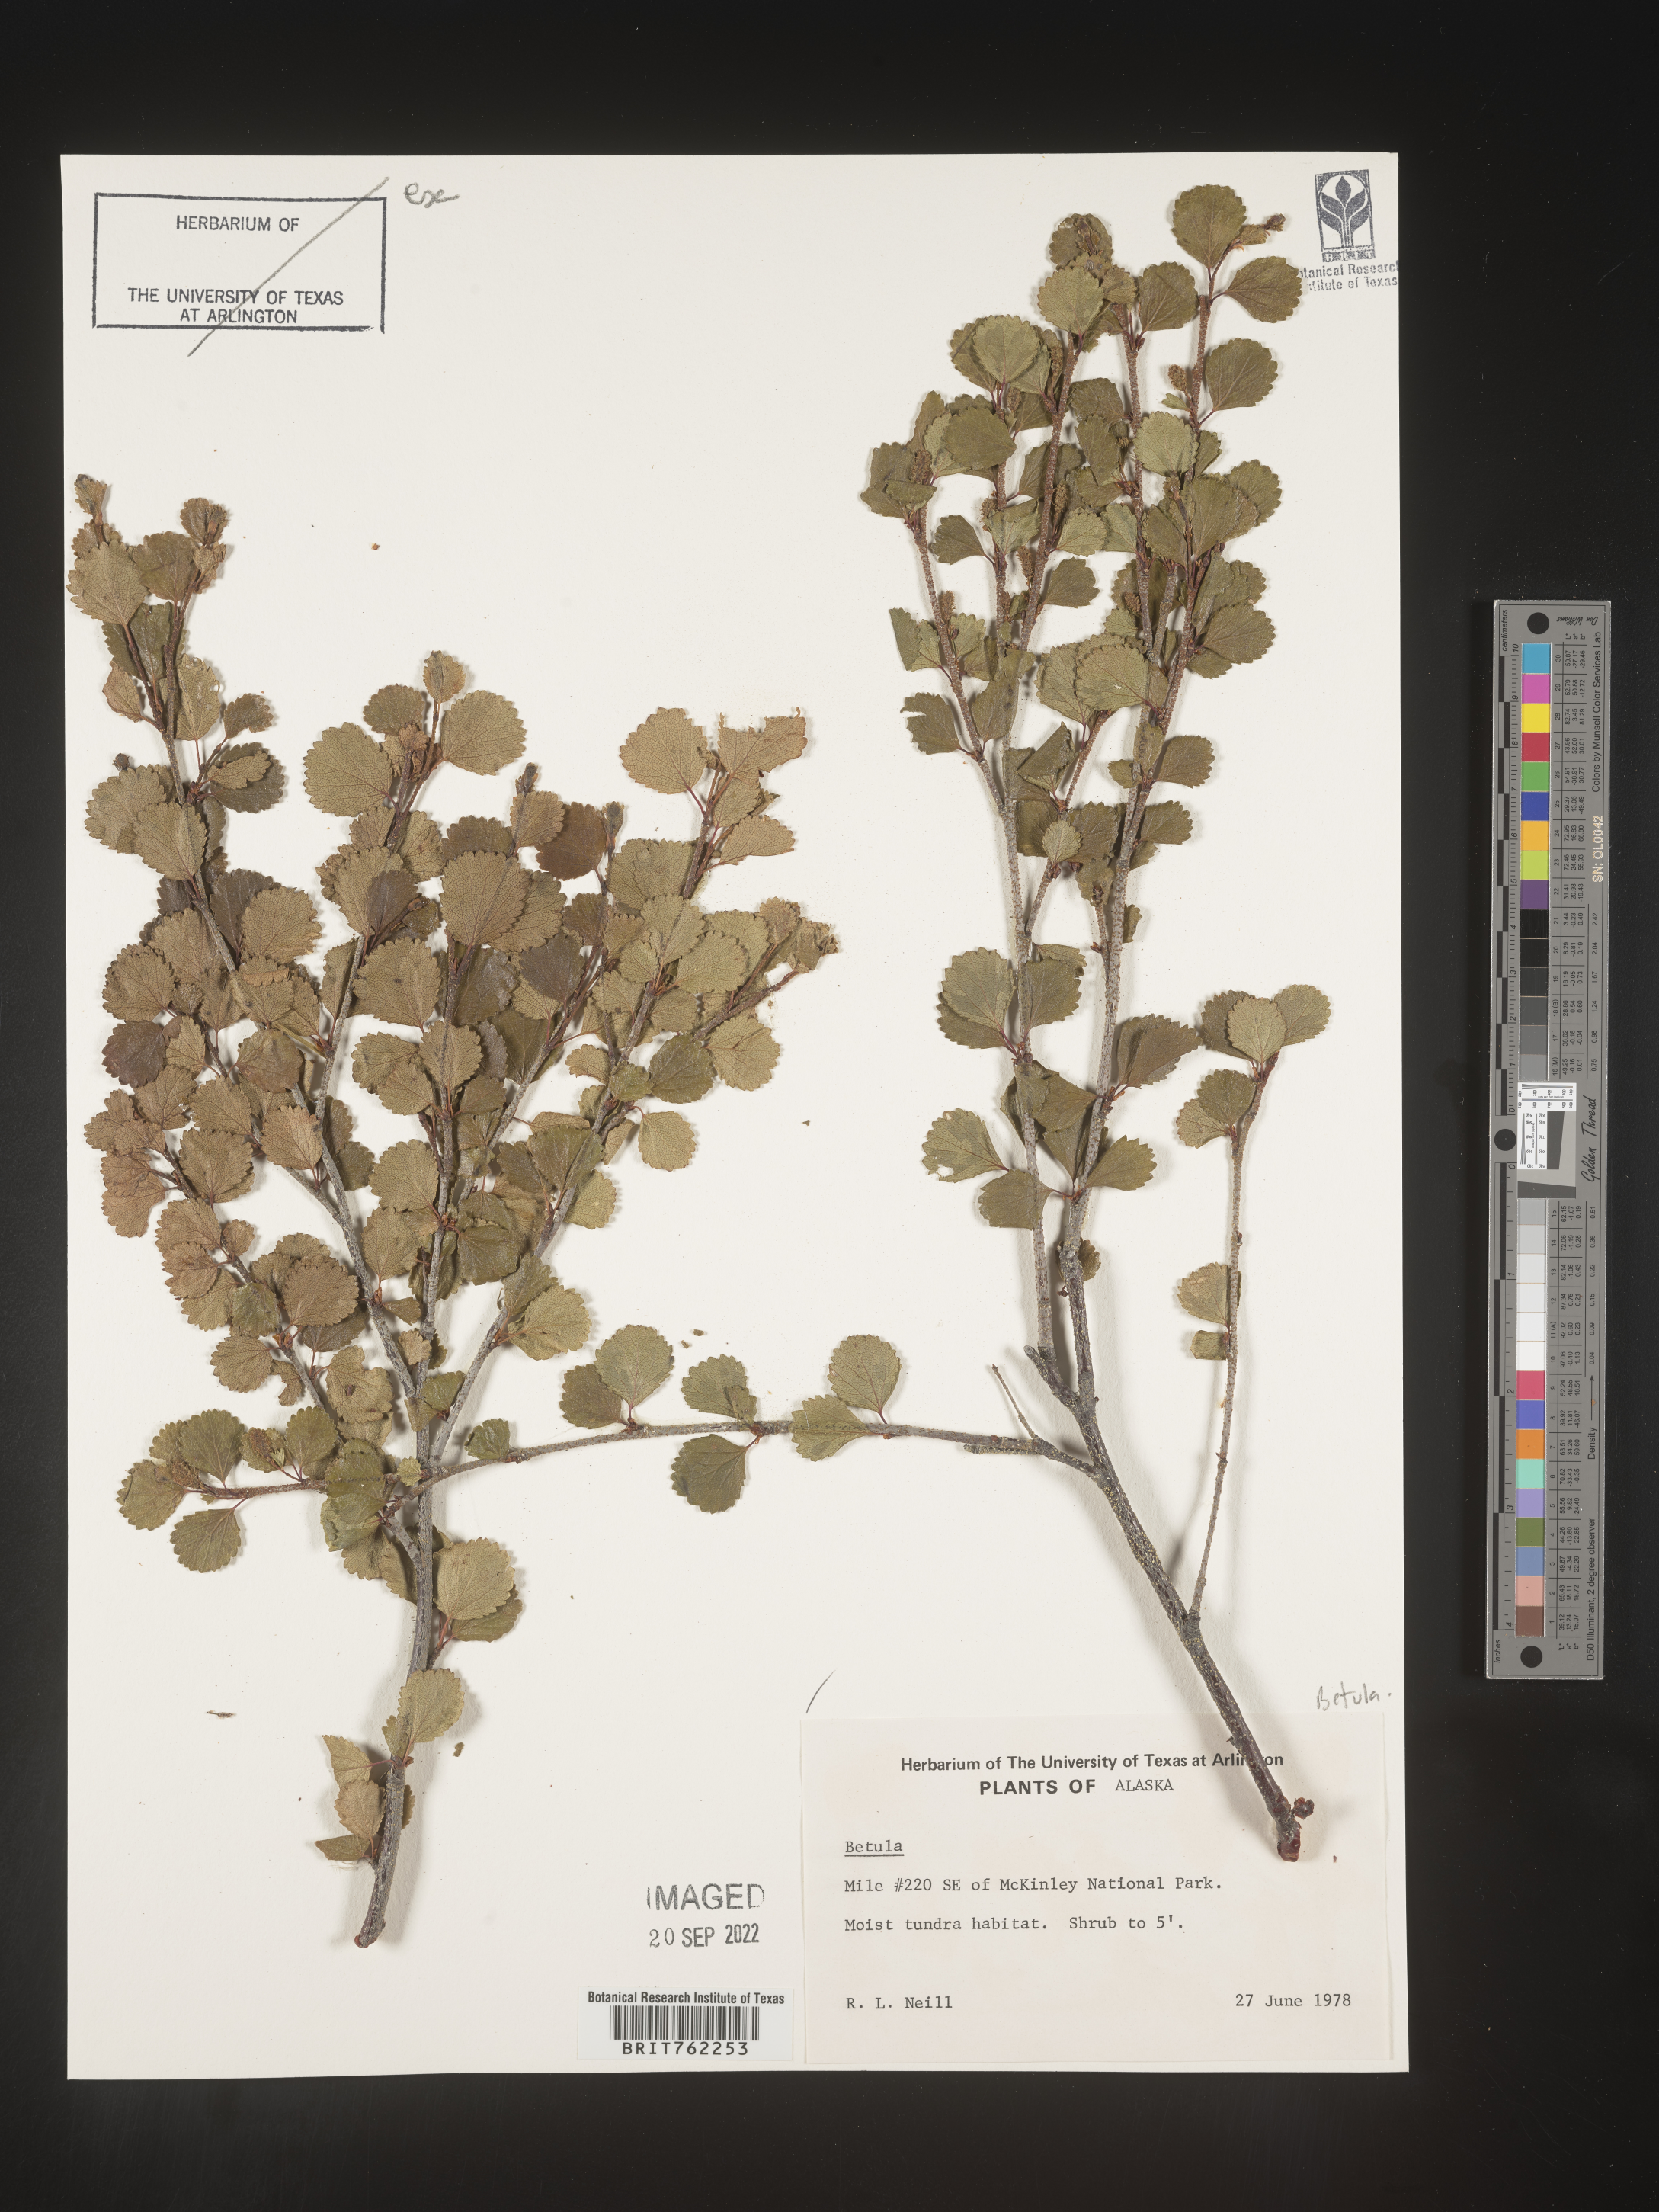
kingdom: Plantae
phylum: Tracheophyta
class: Magnoliopsida
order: Fagales
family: Betulaceae
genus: Betula
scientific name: Betula
